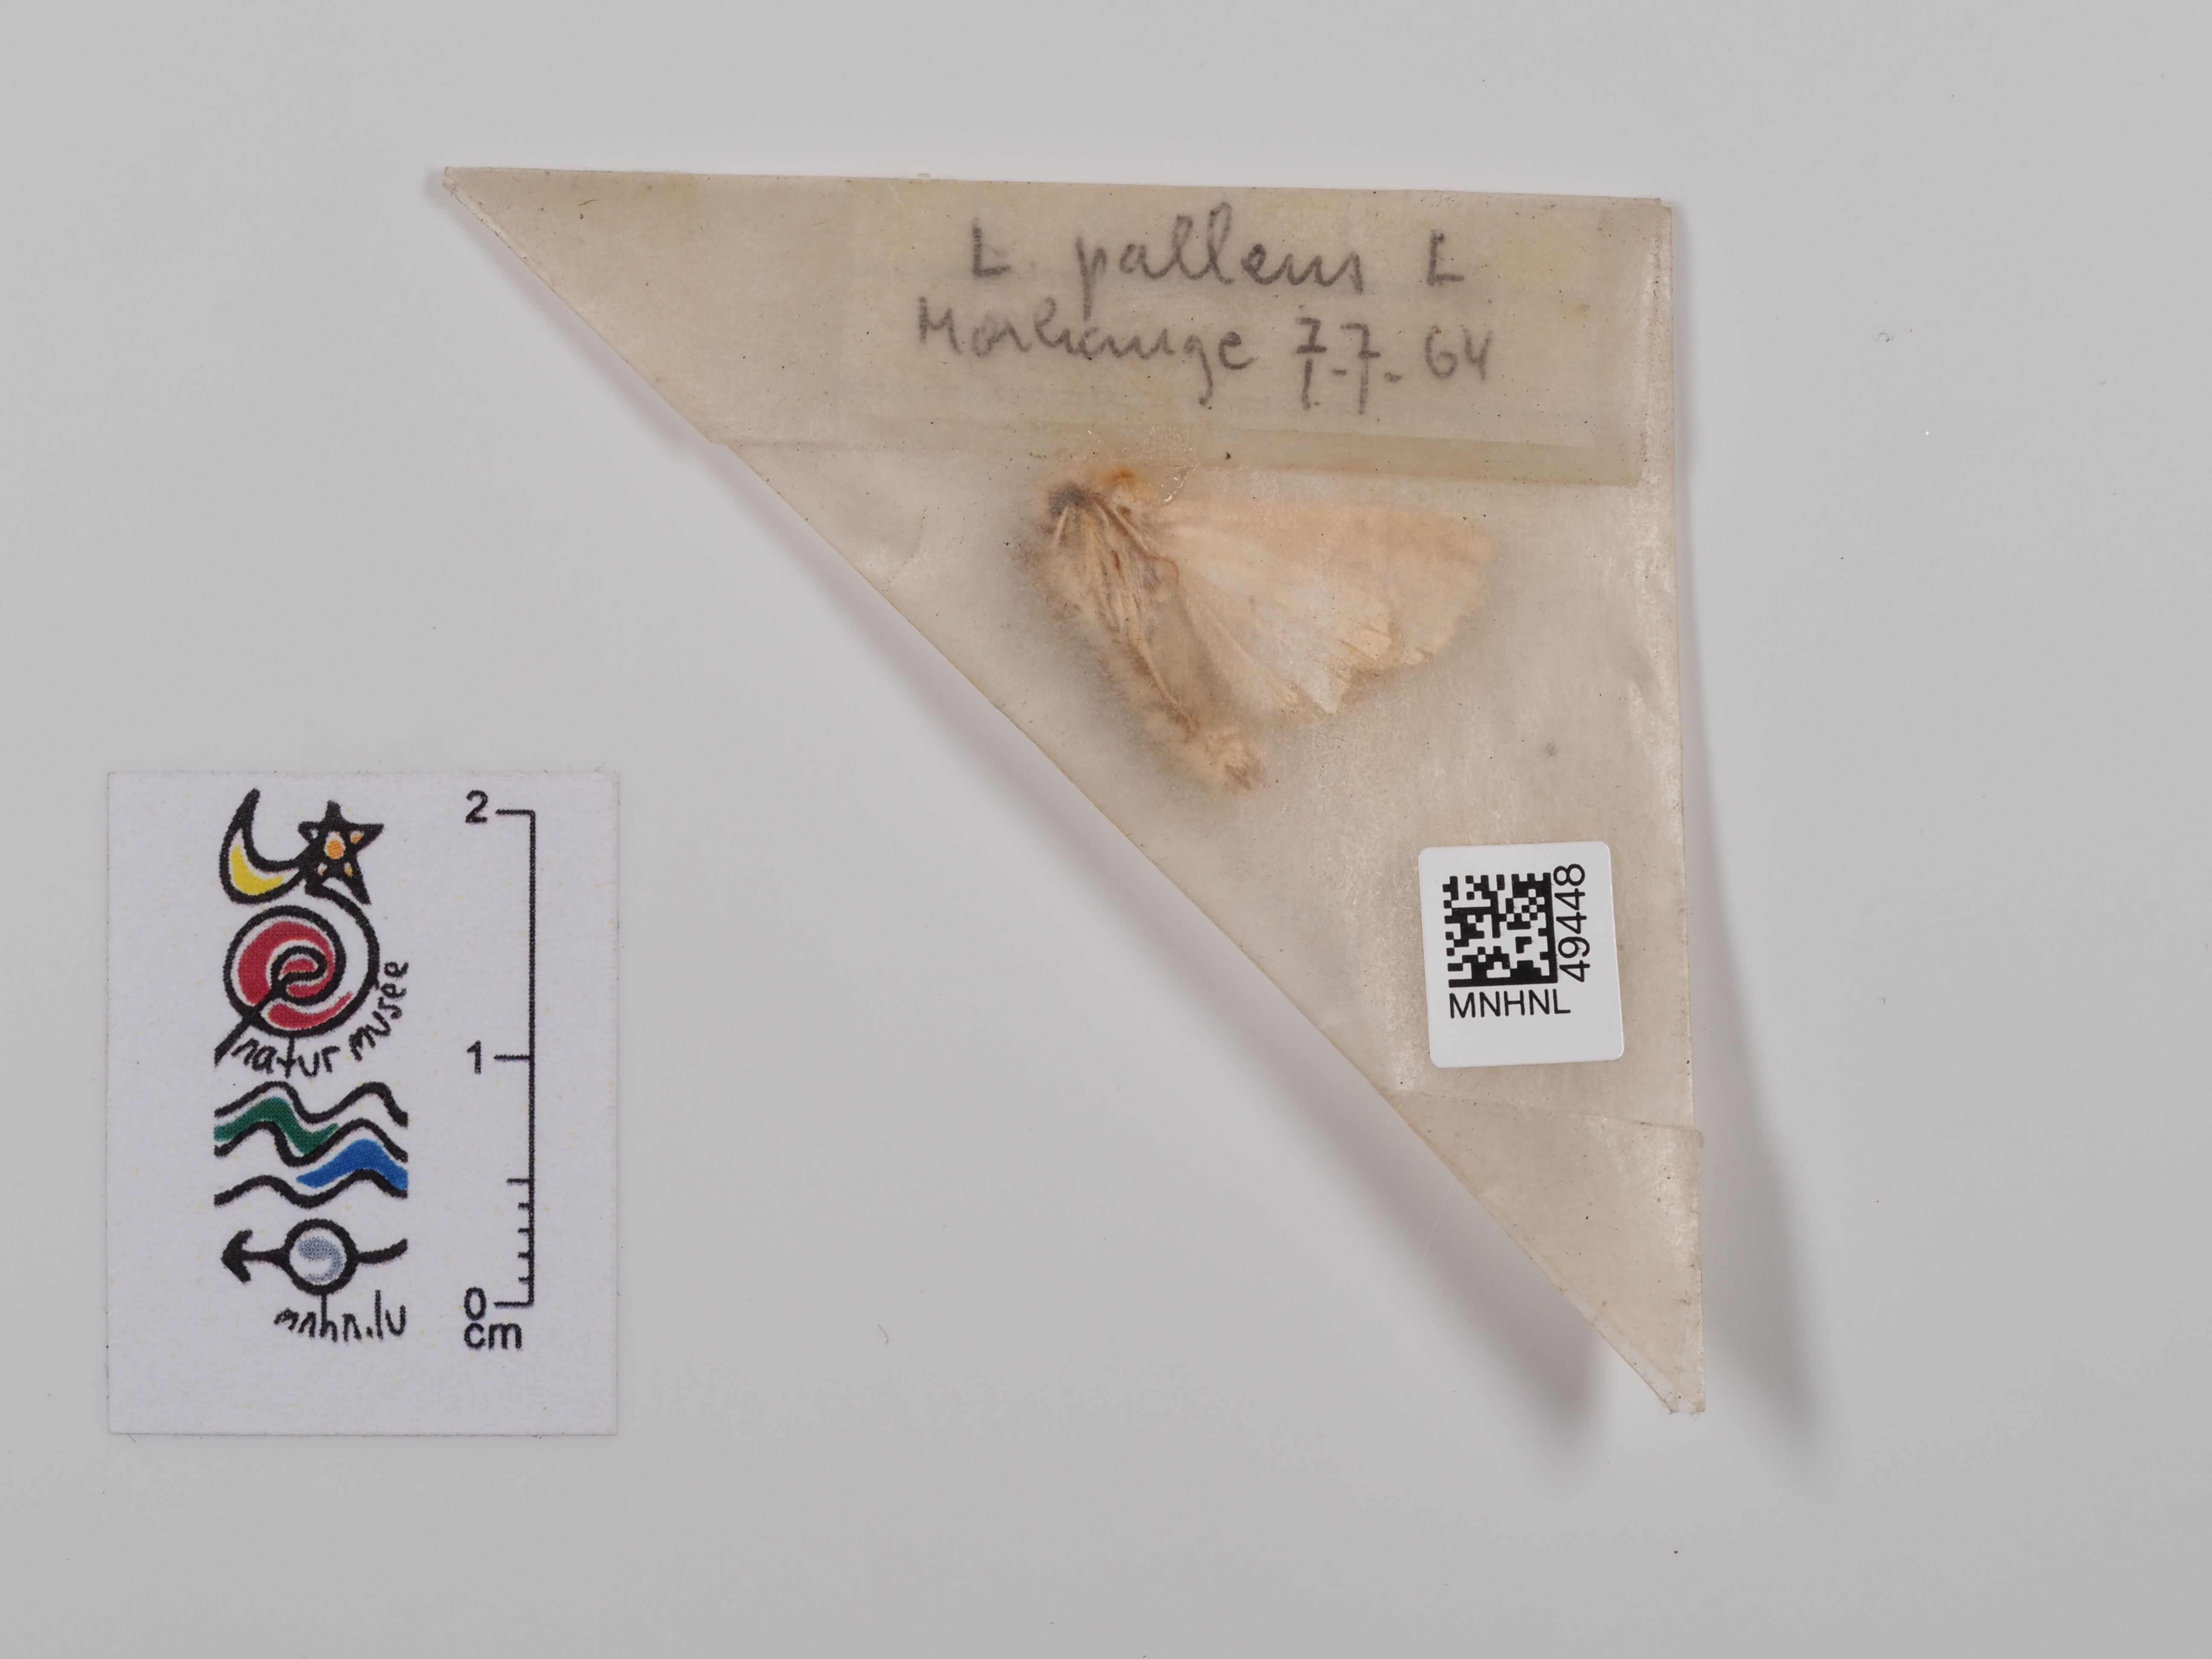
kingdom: Animalia
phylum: Arthropoda
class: Insecta
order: Lepidoptera
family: Noctuidae
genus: Mythimna
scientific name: Mythimna pallens
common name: Common wainscot
